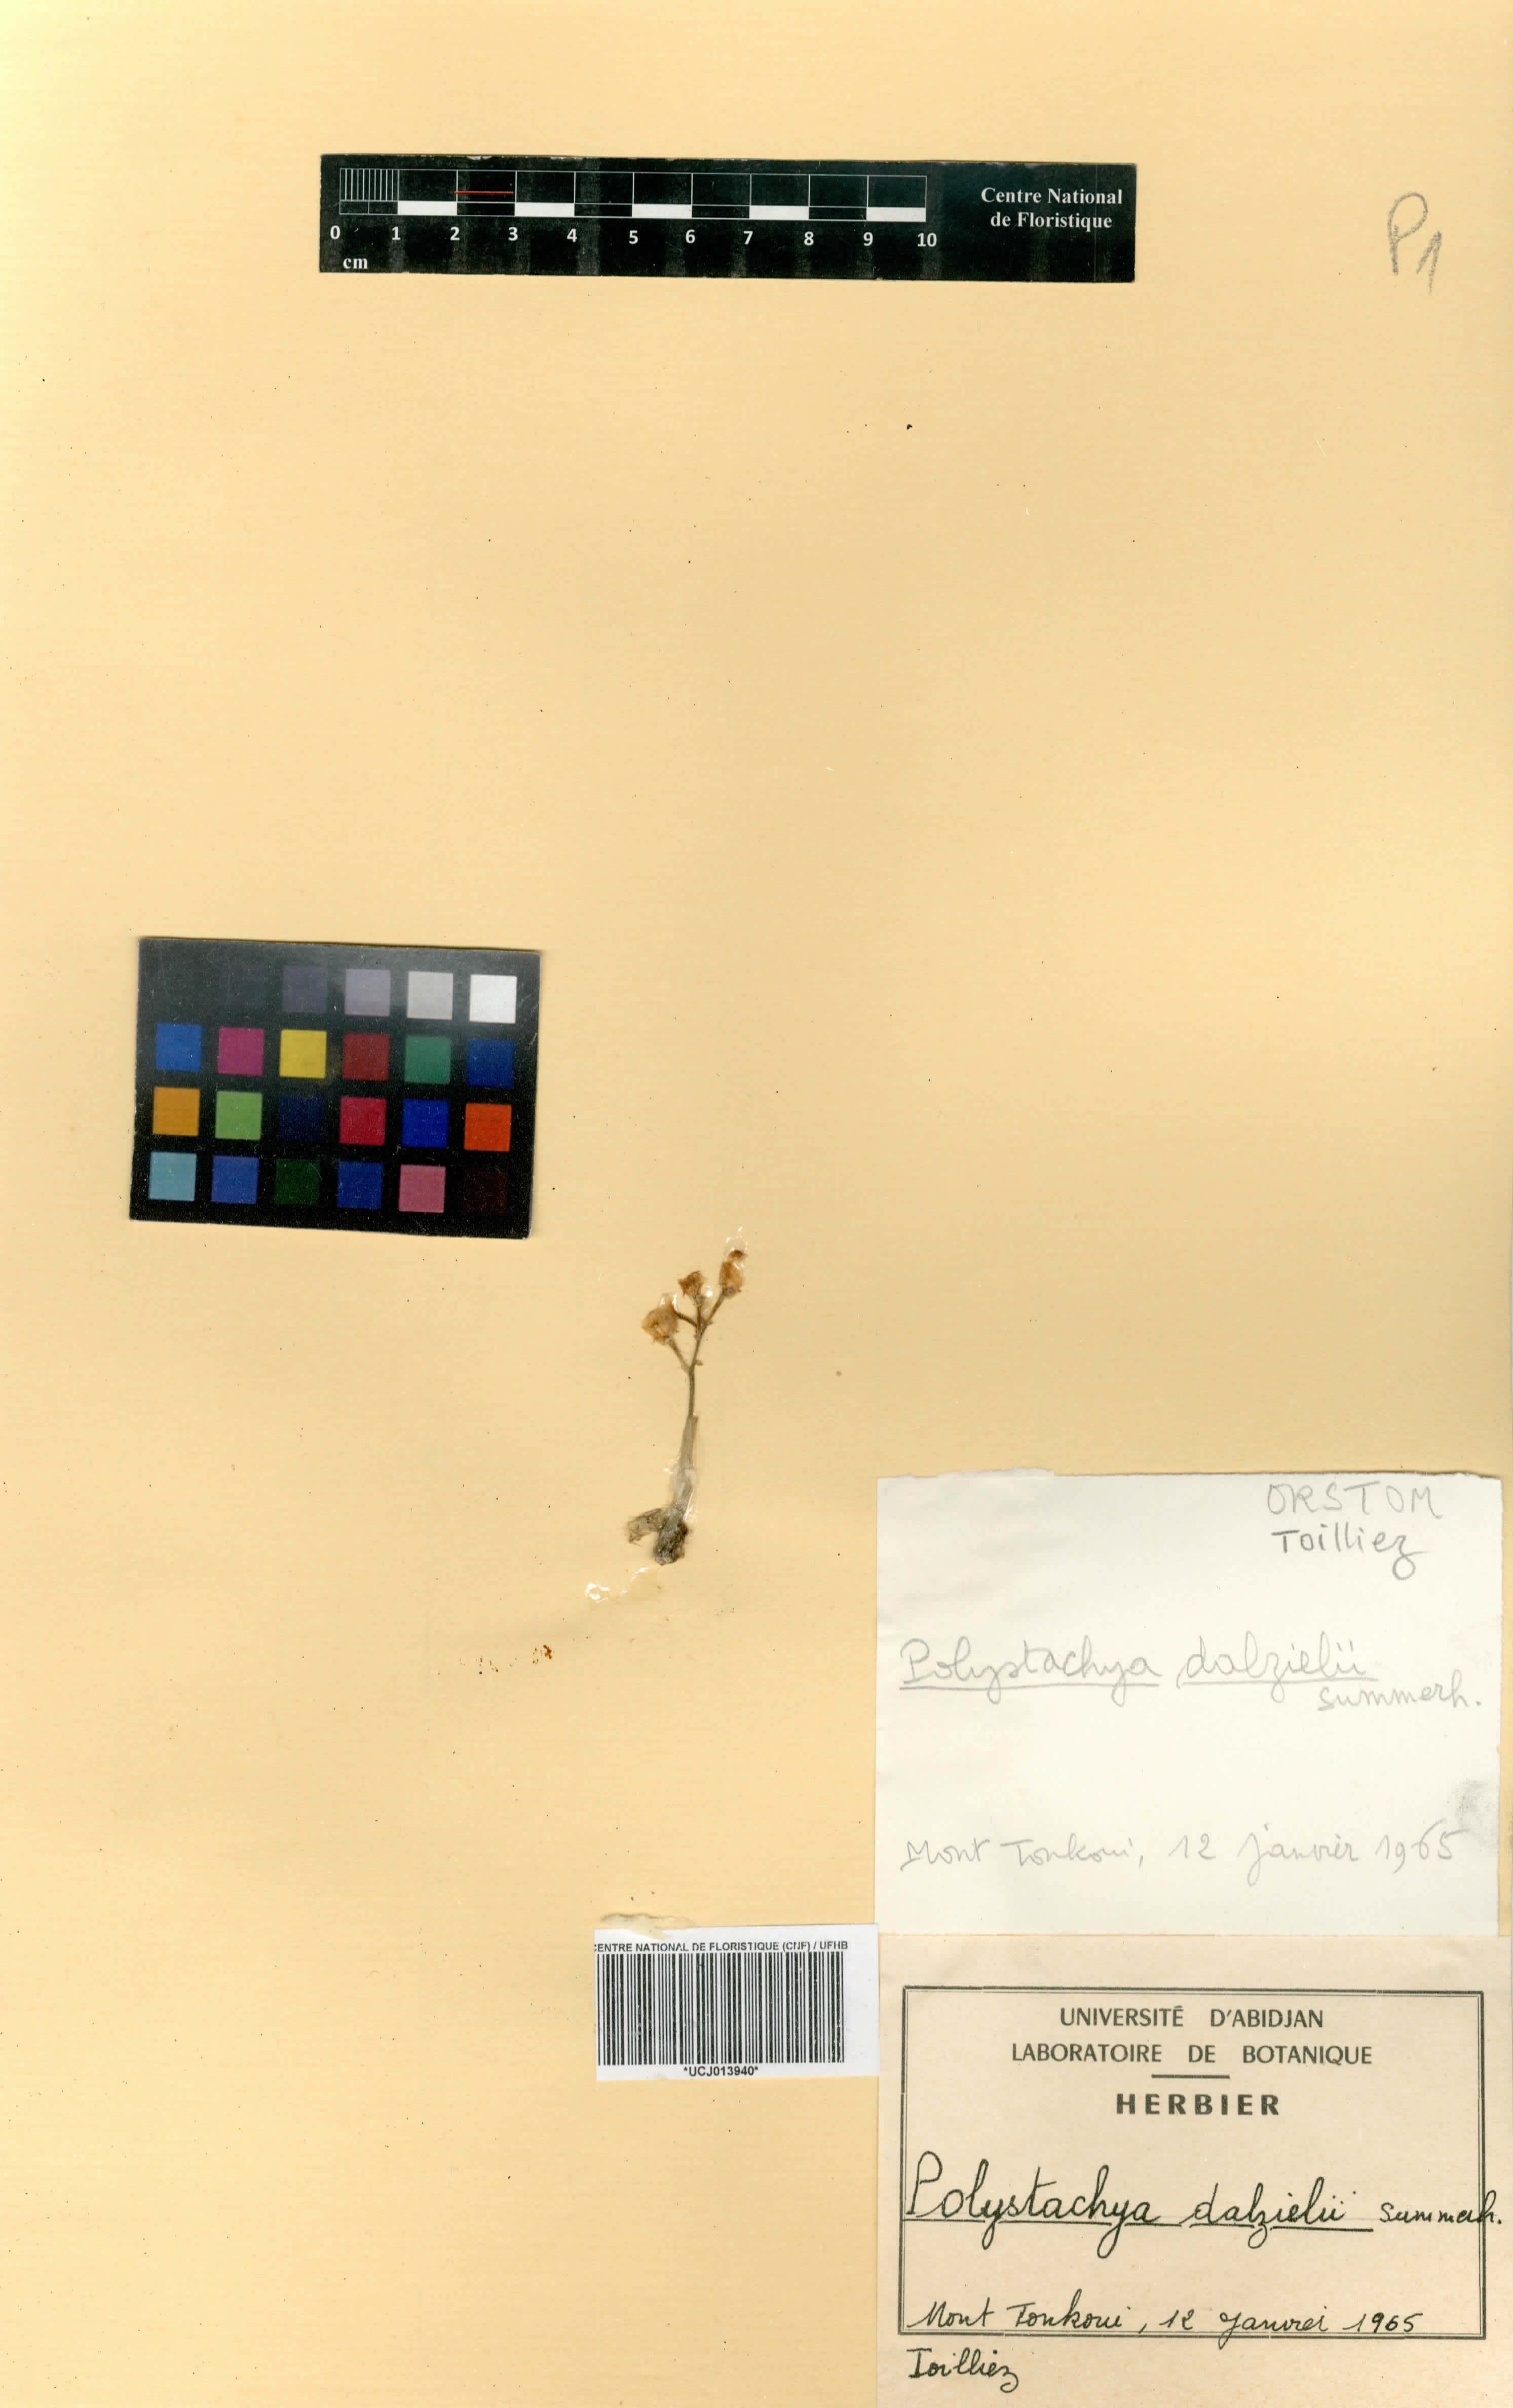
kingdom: Plantae
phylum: Tracheophyta
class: Liliopsida
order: Asparagales
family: Orchidaceae
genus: Polystachya
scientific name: Polystachya dalzielii
